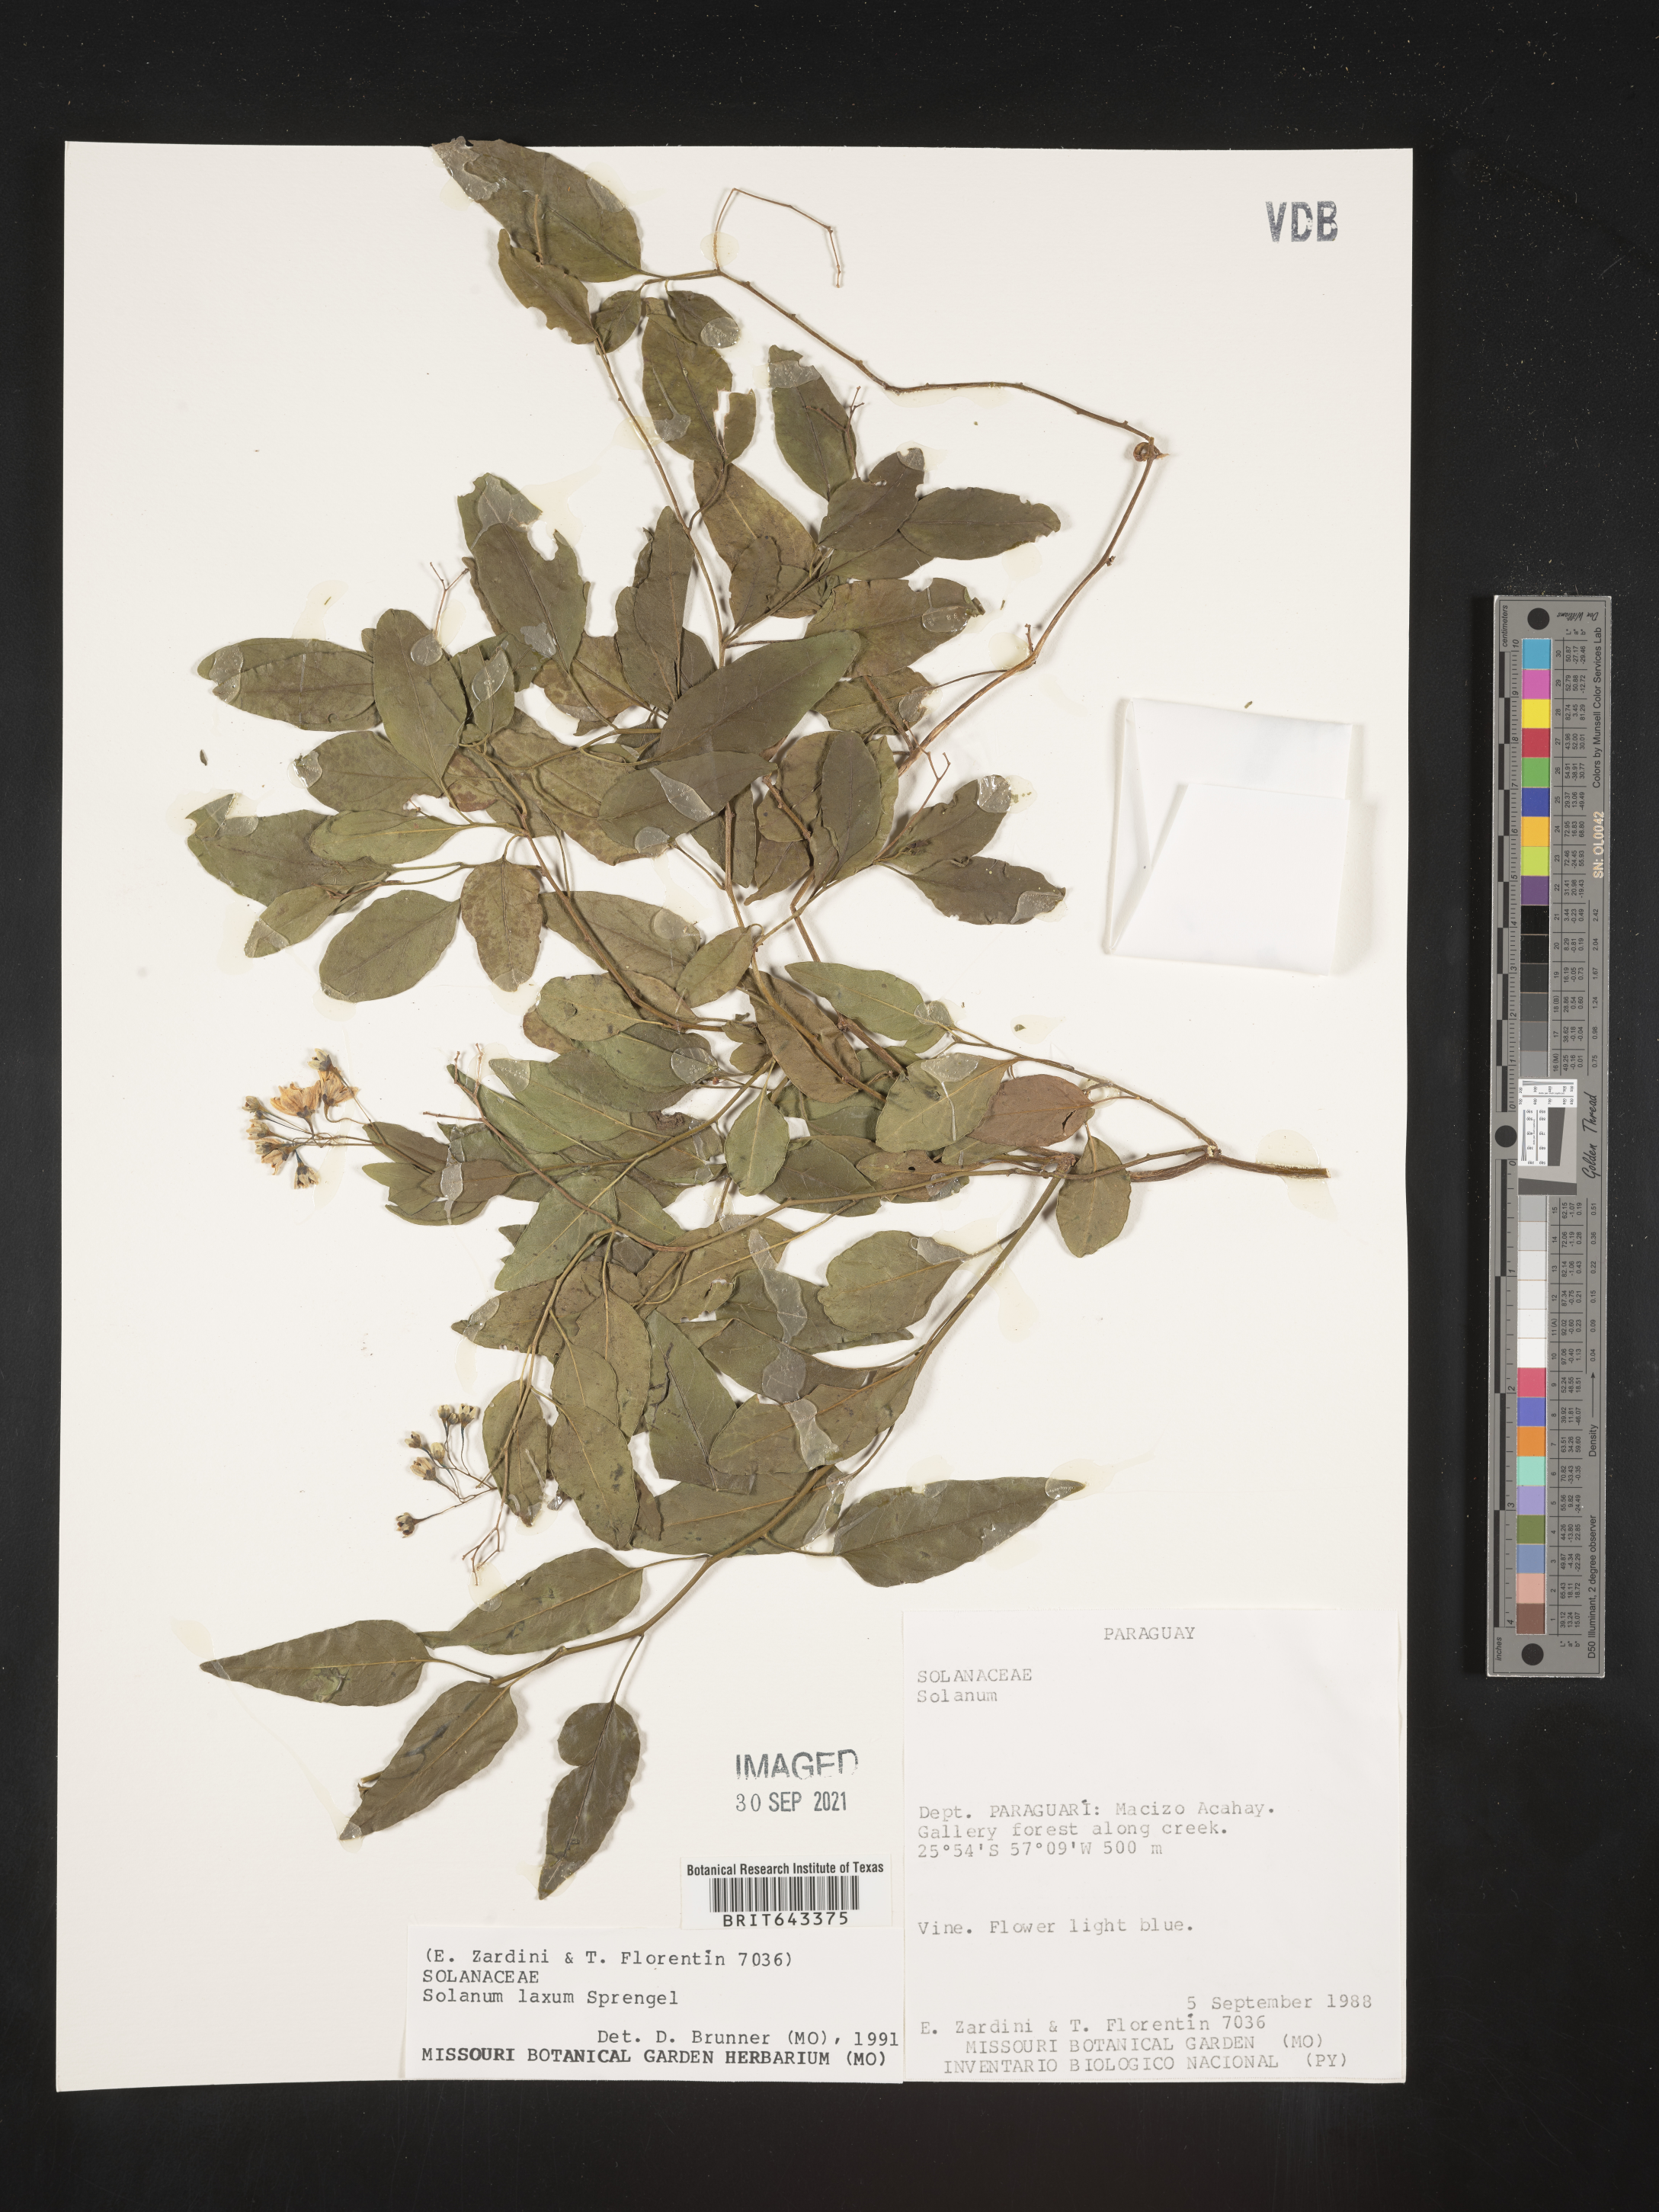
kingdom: Plantae
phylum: Tracheophyta
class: Magnoliopsida
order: Solanales
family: Solanaceae
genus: Solanum
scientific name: Solanum
